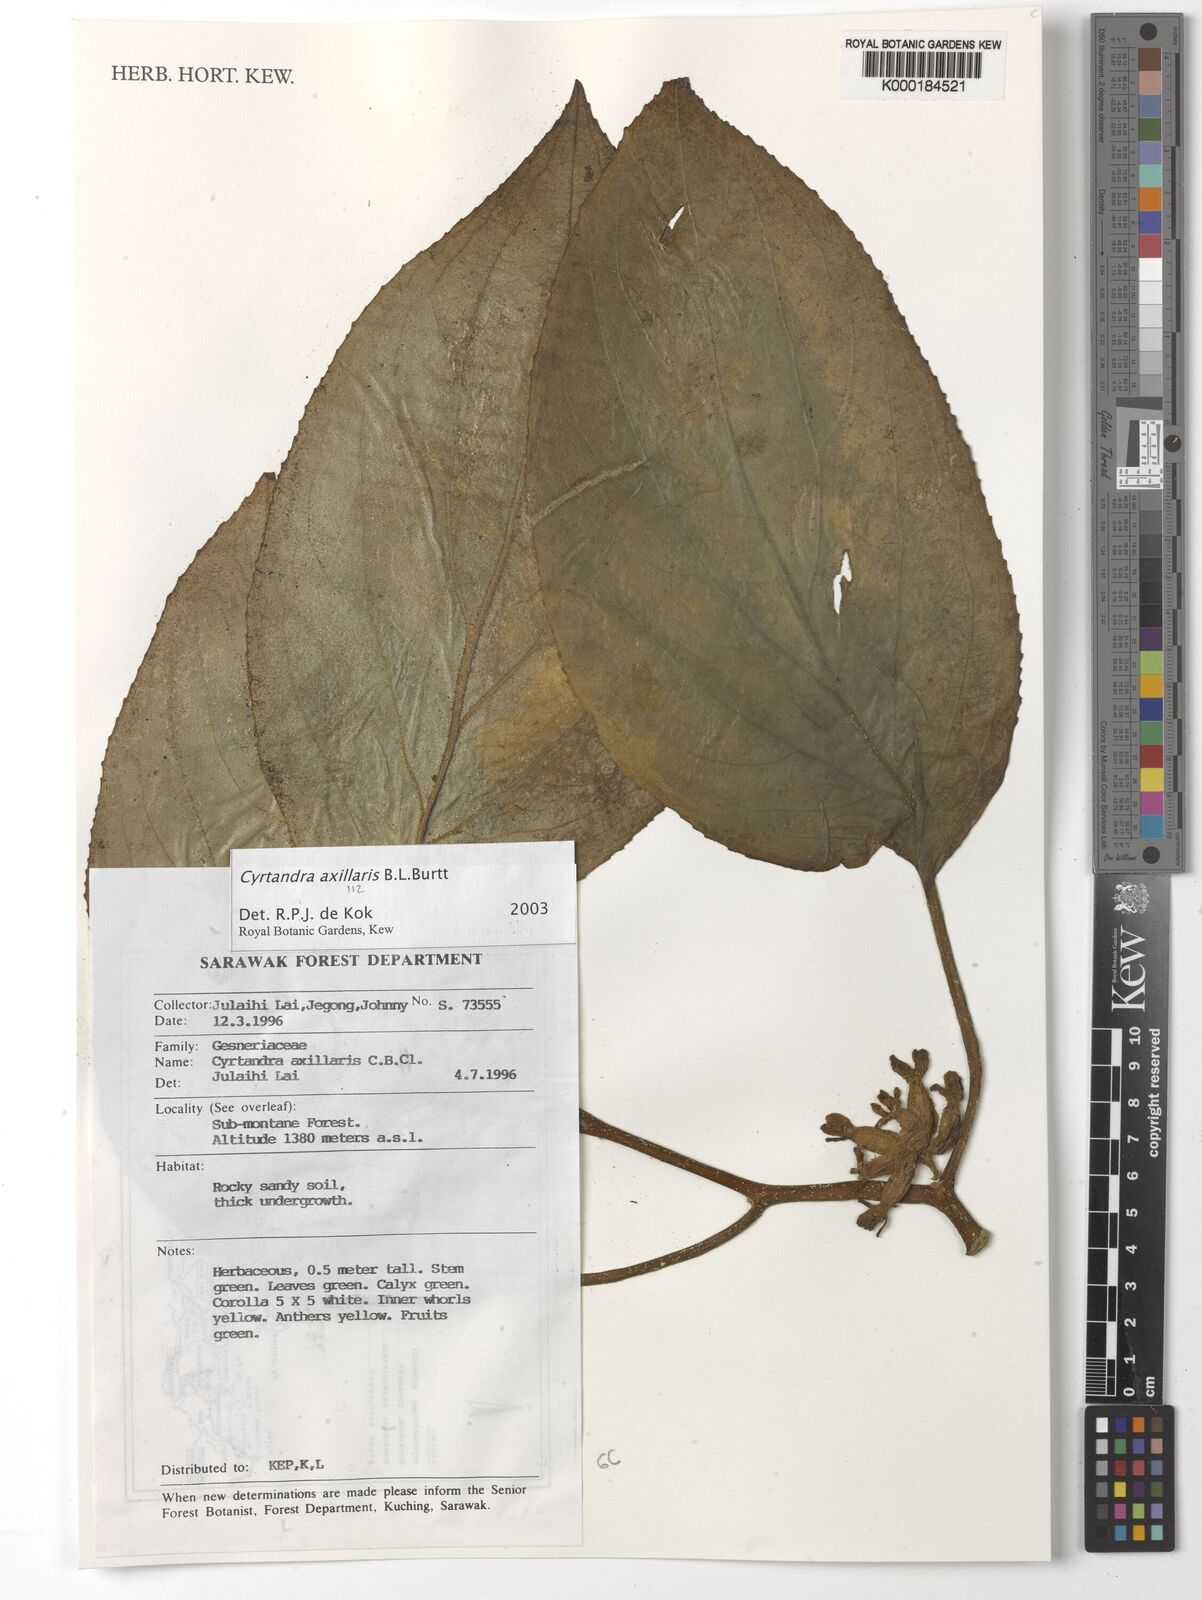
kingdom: Plantae
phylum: Tracheophyta
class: Magnoliopsida
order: Lamiales
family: Gesneriaceae
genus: Cyrtandra
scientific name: Cyrtandra
